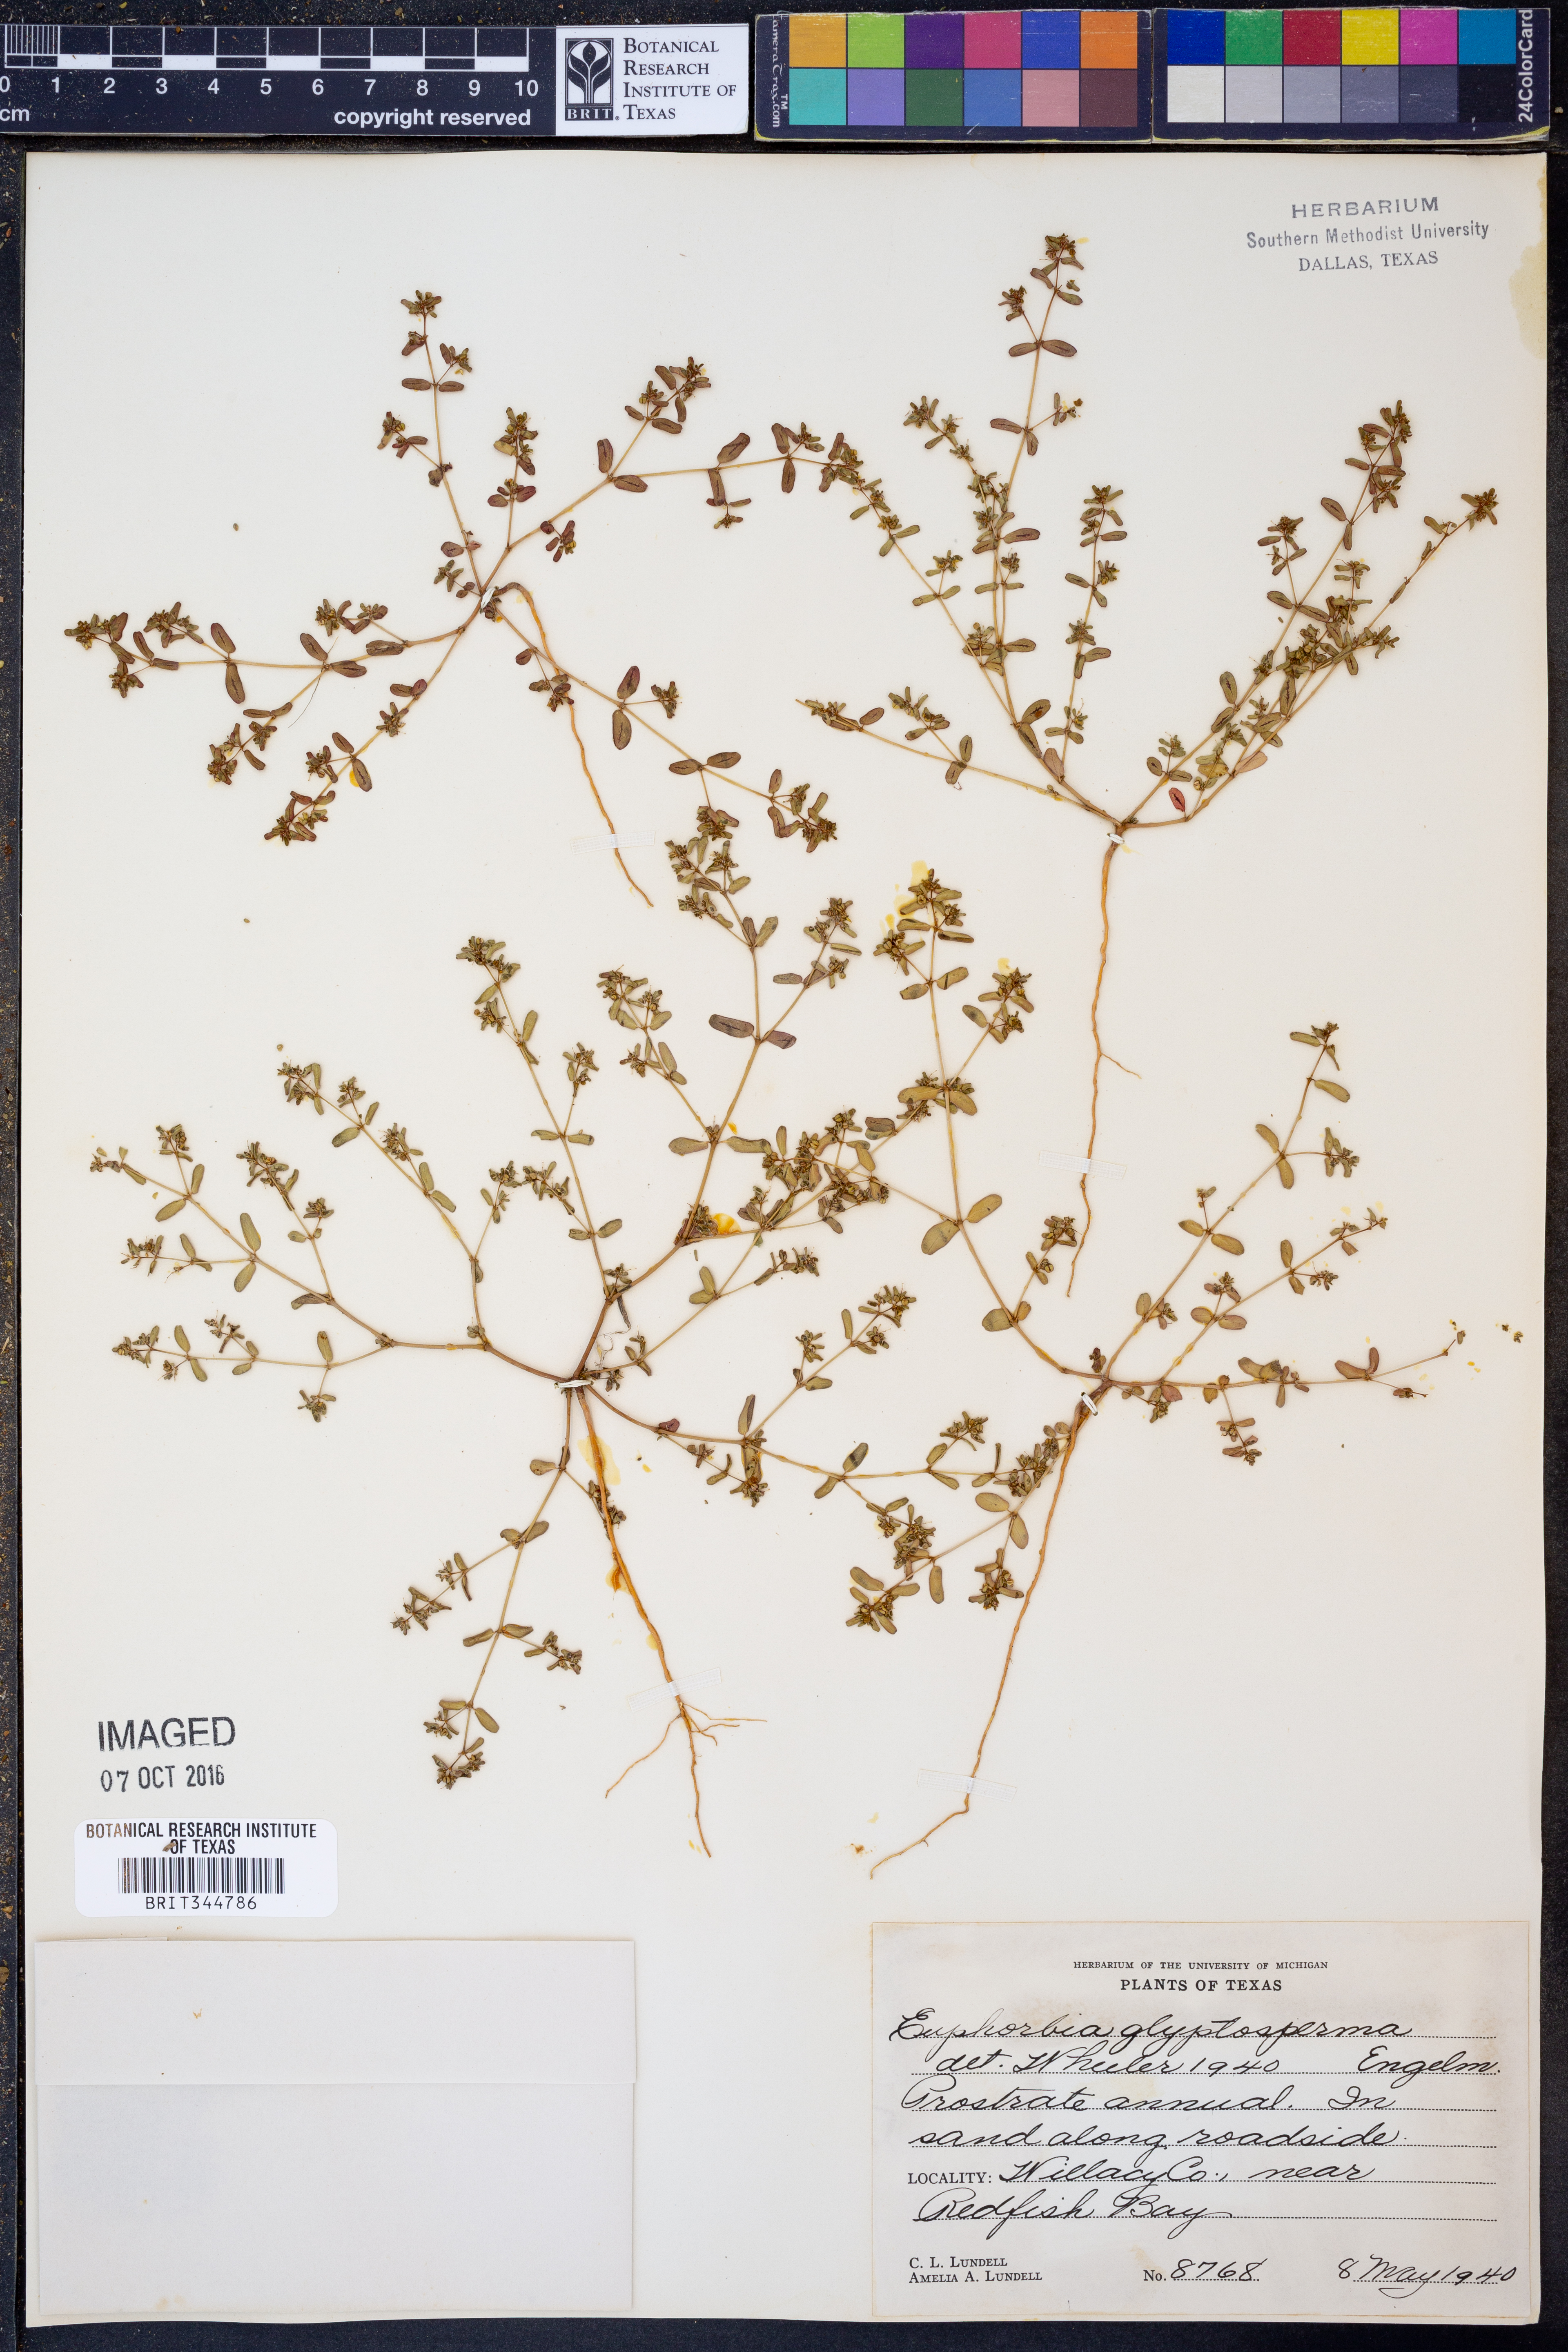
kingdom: Plantae
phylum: Tracheophyta
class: Magnoliopsida
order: Malpighiales
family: Euphorbiaceae
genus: Euphorbia
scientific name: Euphorbia glyptosperma
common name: Corrugate-seeded spurge
